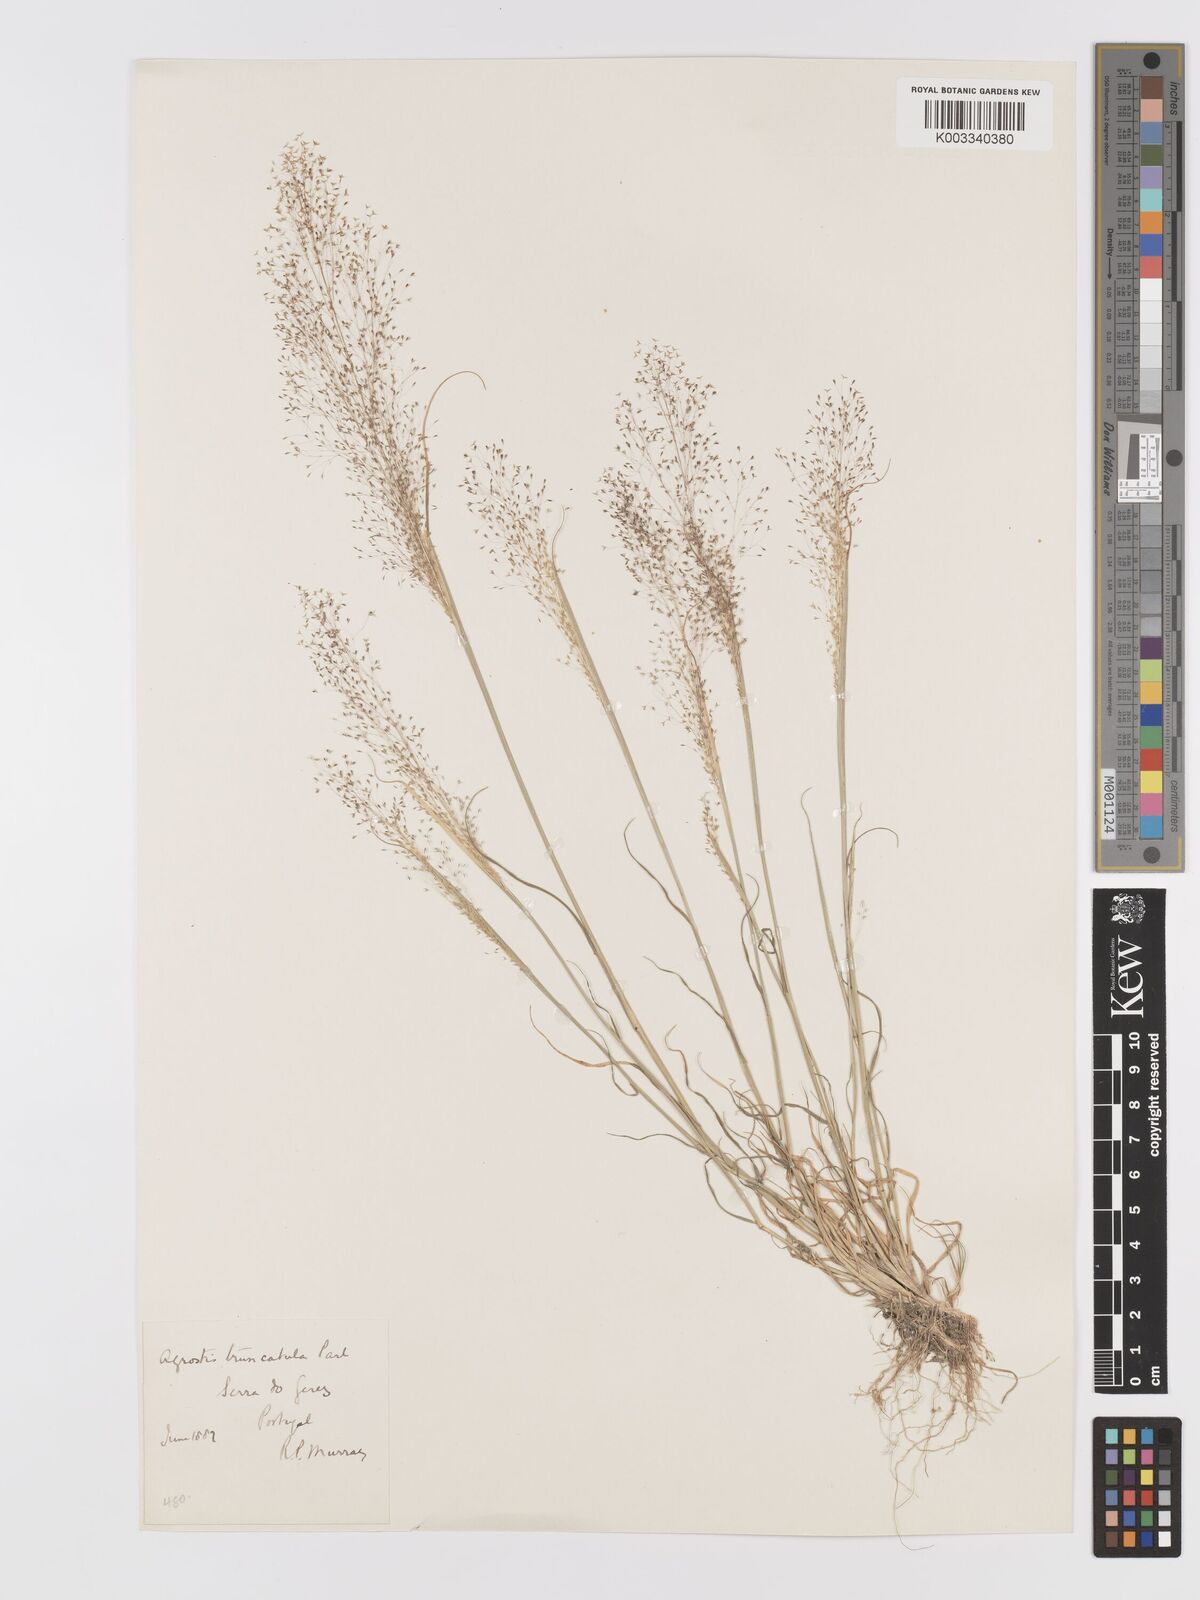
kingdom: Plantae
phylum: Tracheophyta
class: Liliopsida
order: Poales
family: Poaceae
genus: Agrostis
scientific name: Agrostis castellana
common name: Highland bent
